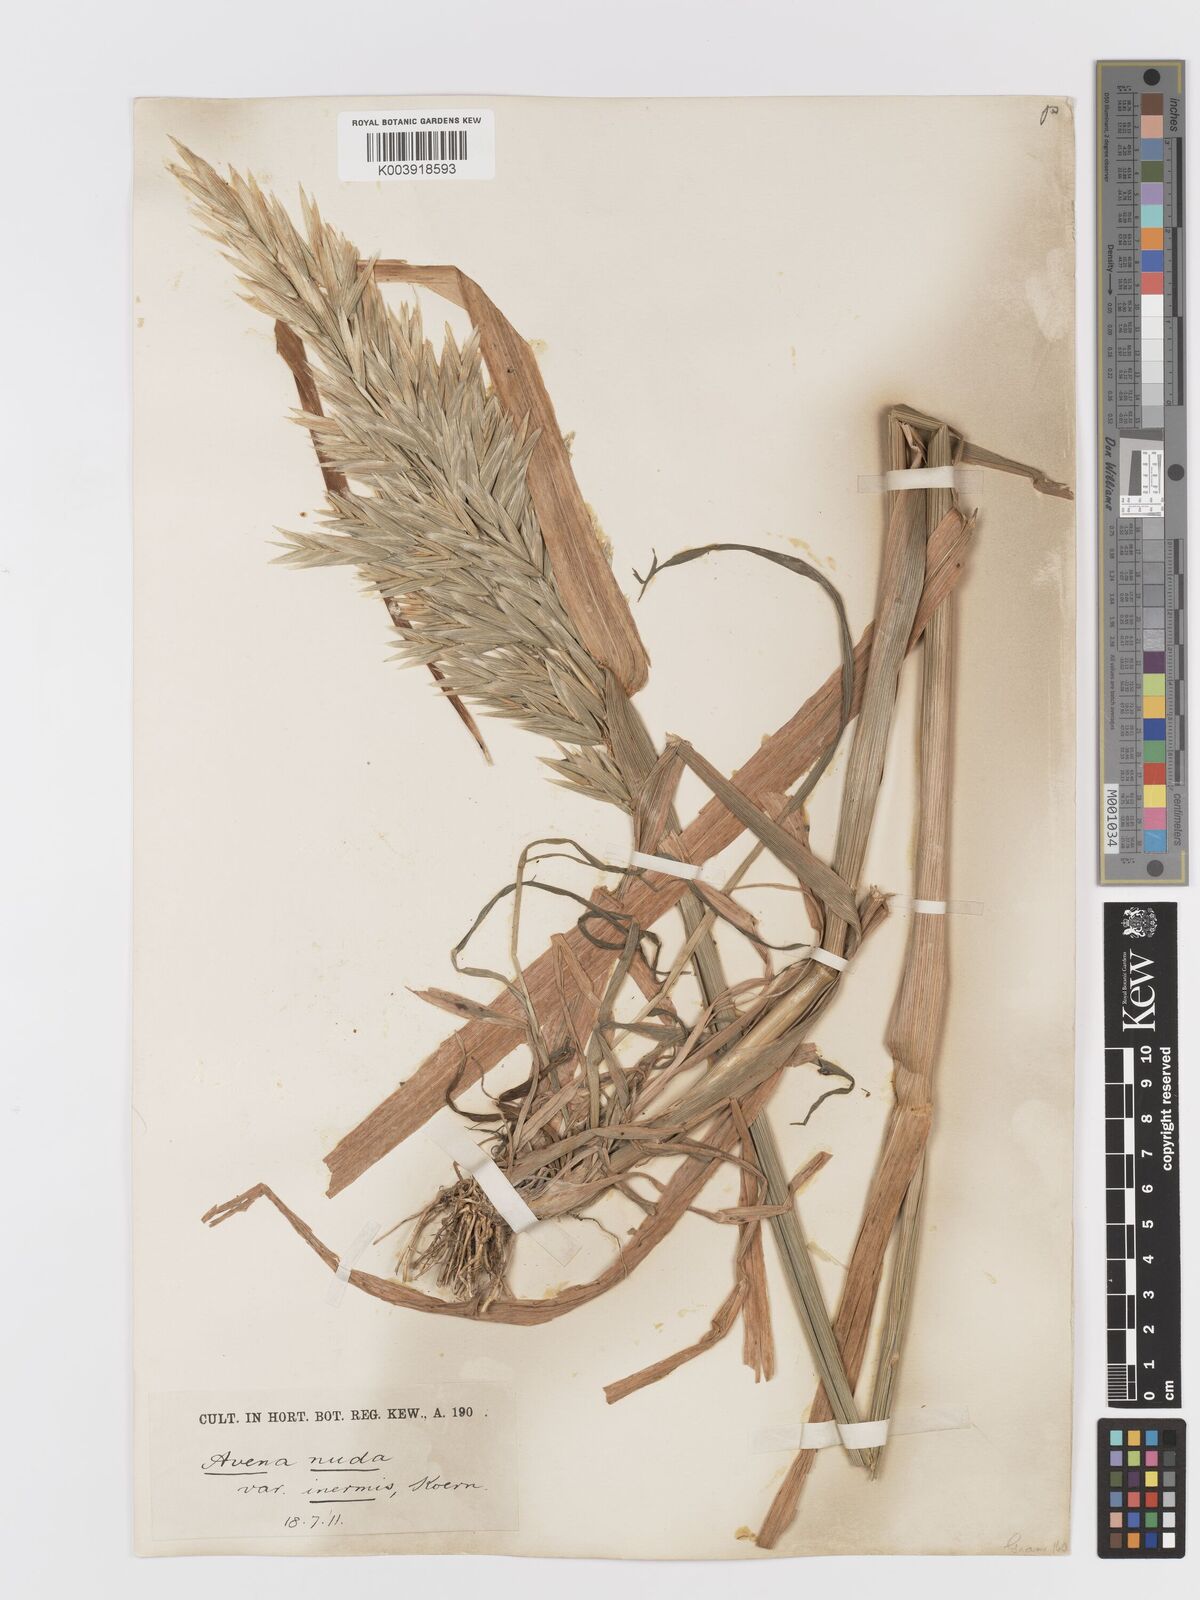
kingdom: Plantae
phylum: Tracheophyta
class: Liliopsida
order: Poales
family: Poaceae
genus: Avena
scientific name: Avena chinensis
